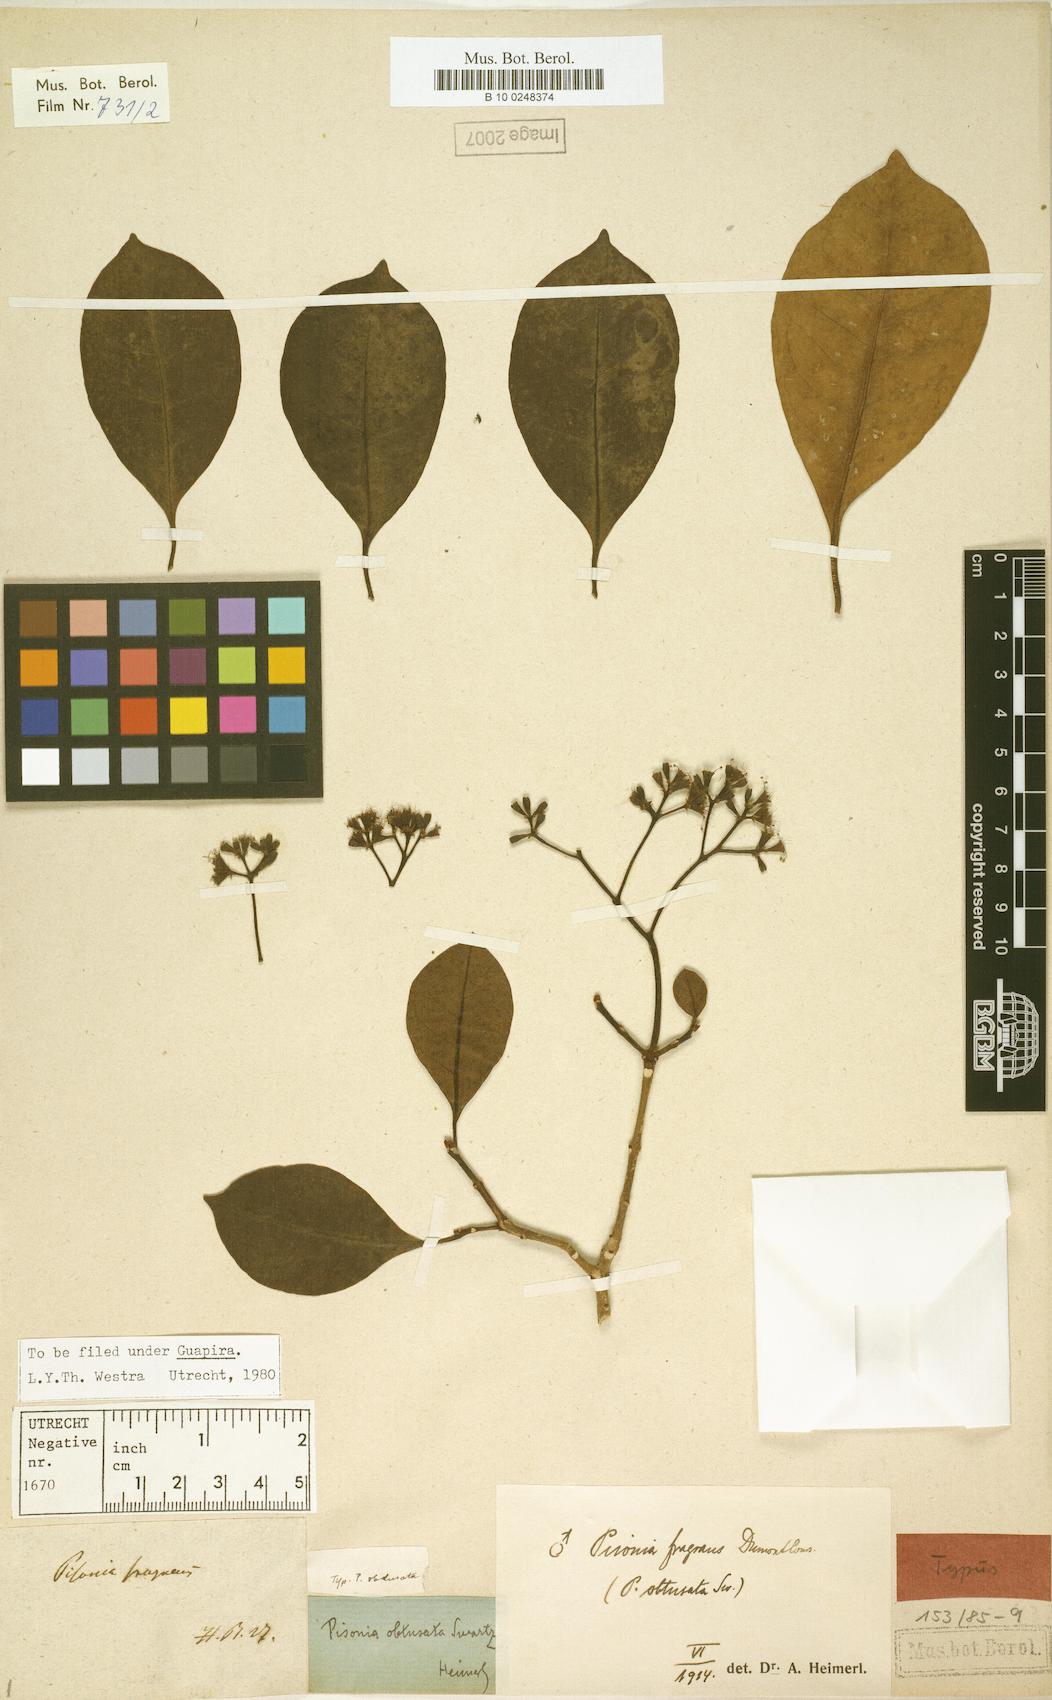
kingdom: Plantae
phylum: Tracheophyta
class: Magnoliopsida
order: Caryophyllales
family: Nyctaginaceae
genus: Guapira
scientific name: Guapira fragrans
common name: Black loblolly tree
